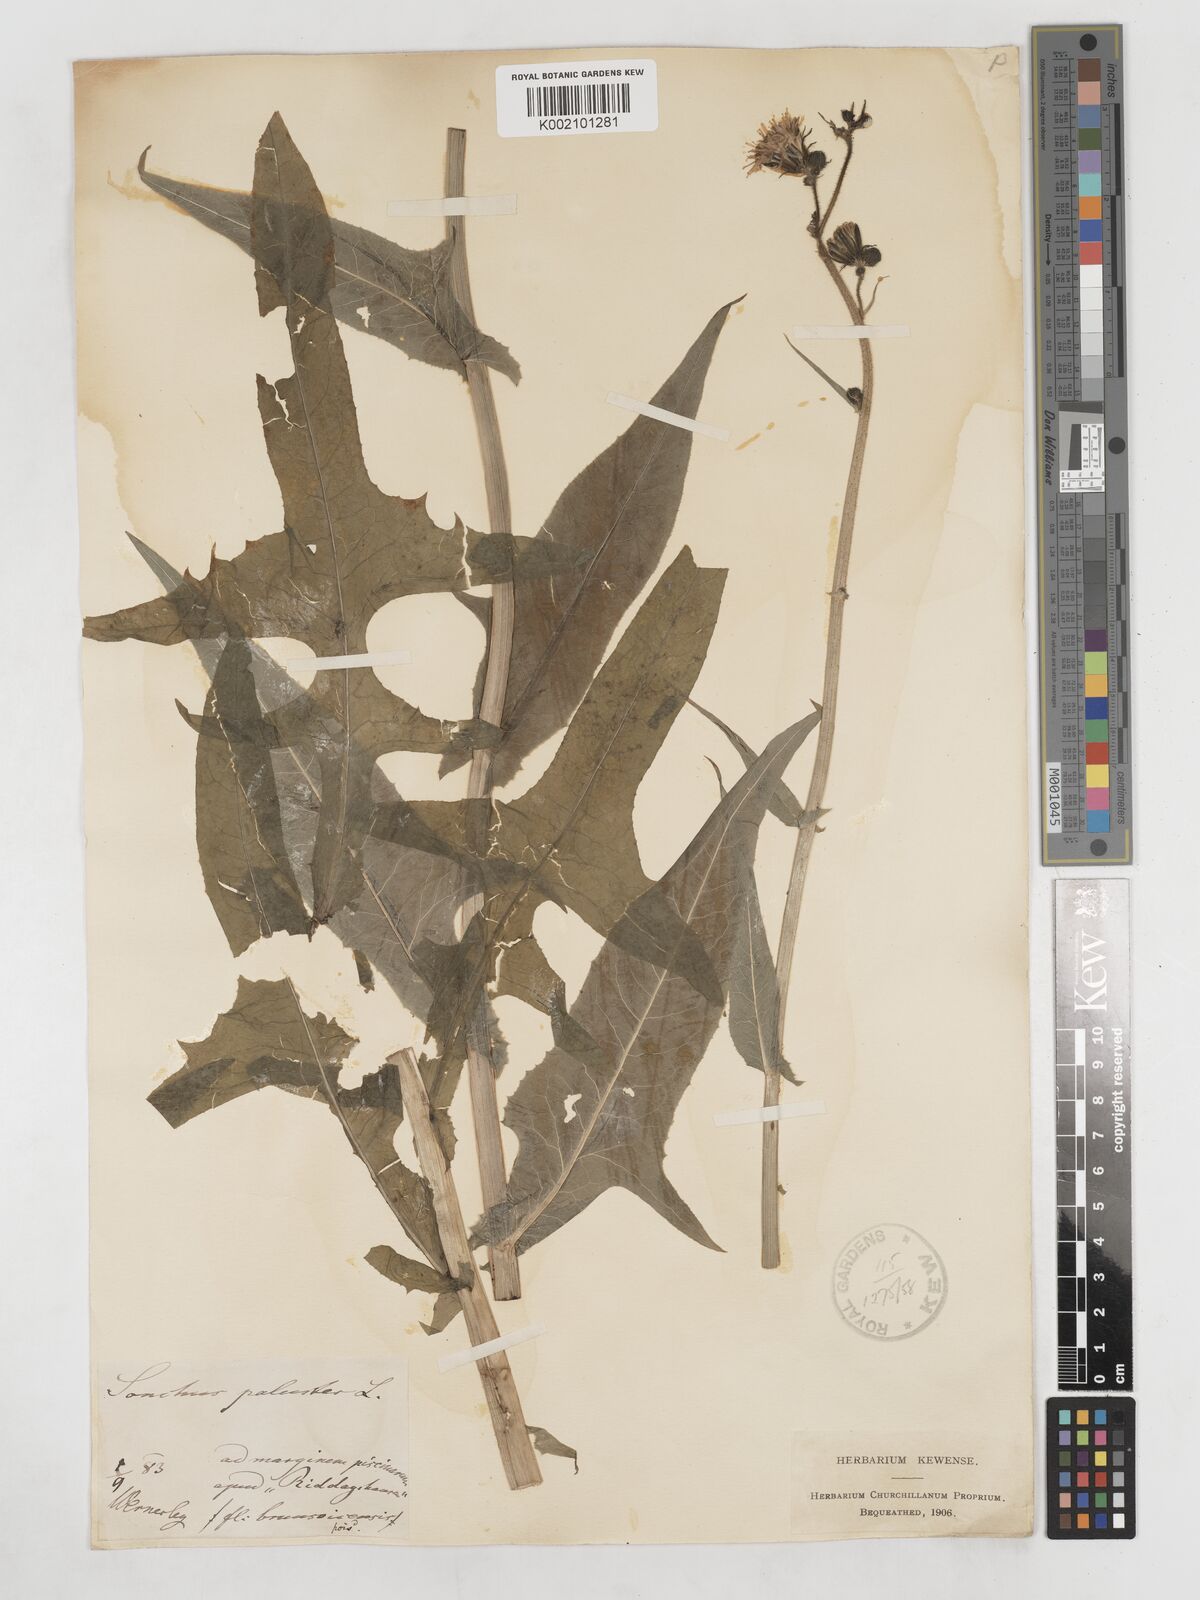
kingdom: Plantae
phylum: Tracheophyta
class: Magnoliopsida
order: Asterales
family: Asteraceae
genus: Sonchus
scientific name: Sonchus palustris
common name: Marsh sow-thistle
